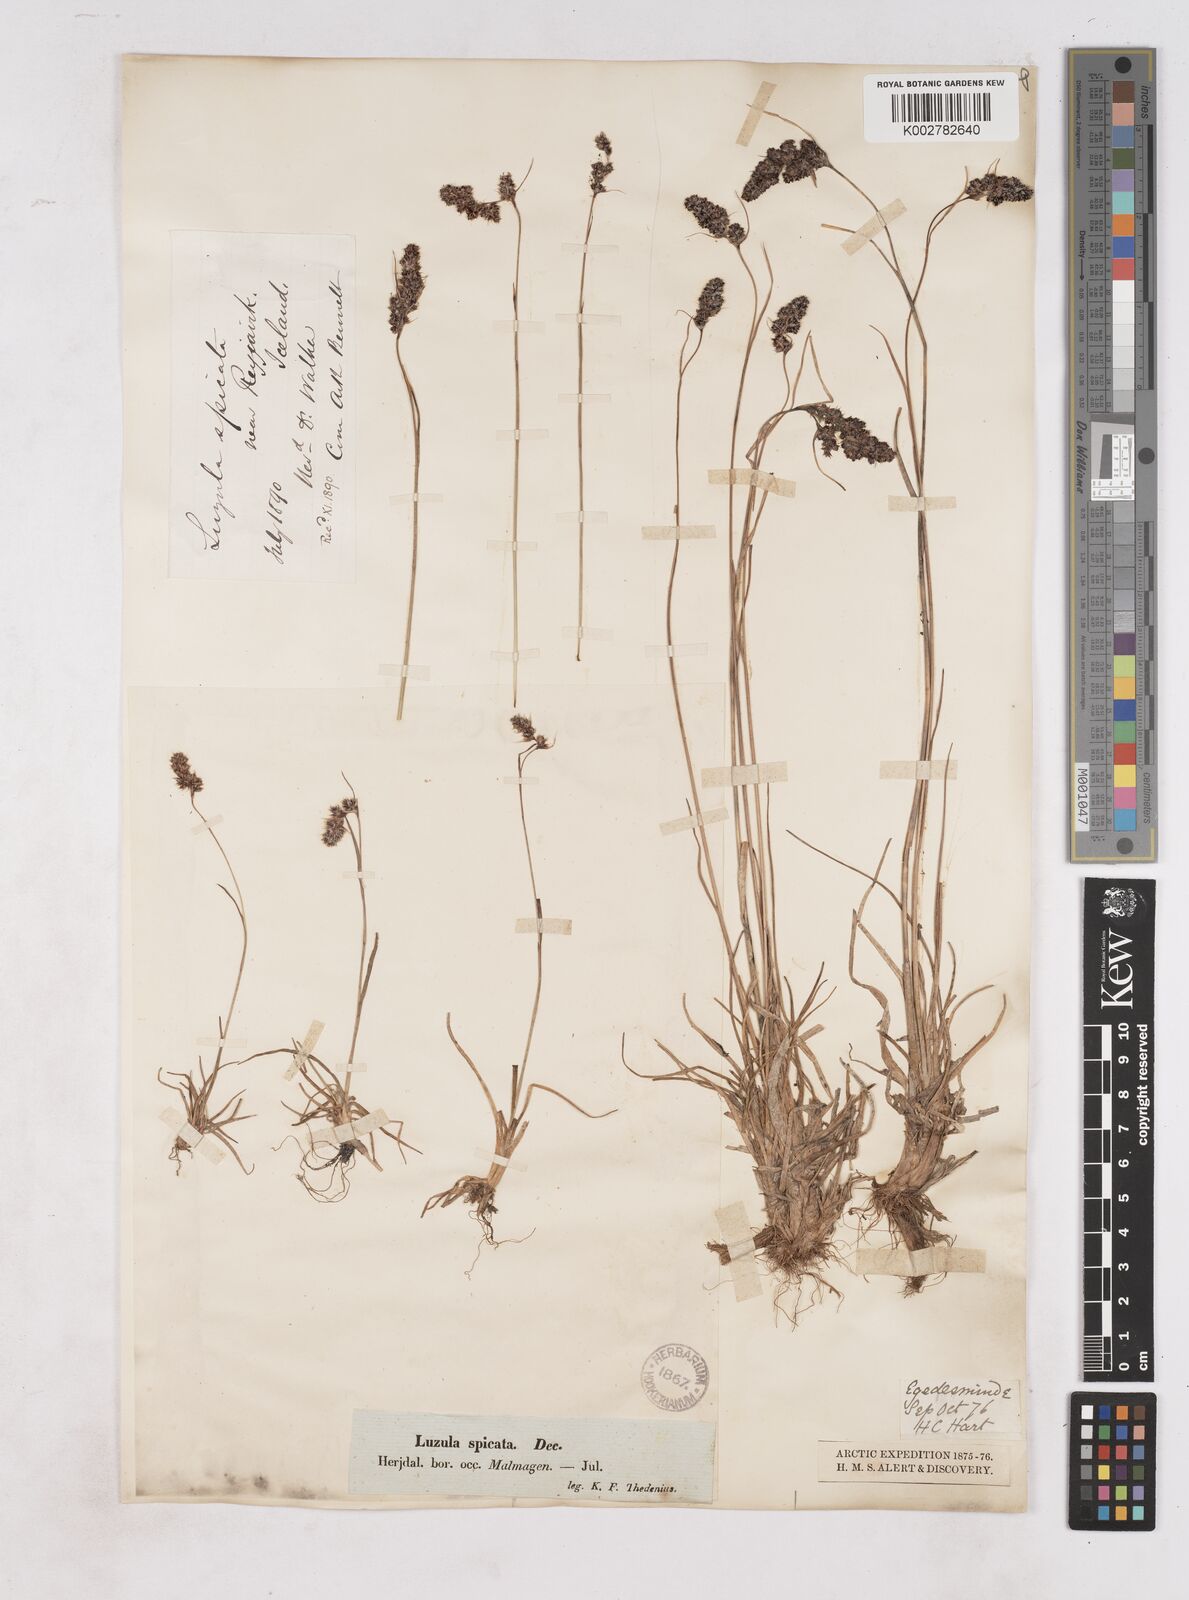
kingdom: Plantae
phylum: Tracheophyta
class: Liliopsida
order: Poales
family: Juncaceae
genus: Luzula
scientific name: Luzula spicata
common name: Spiked wood-rush
